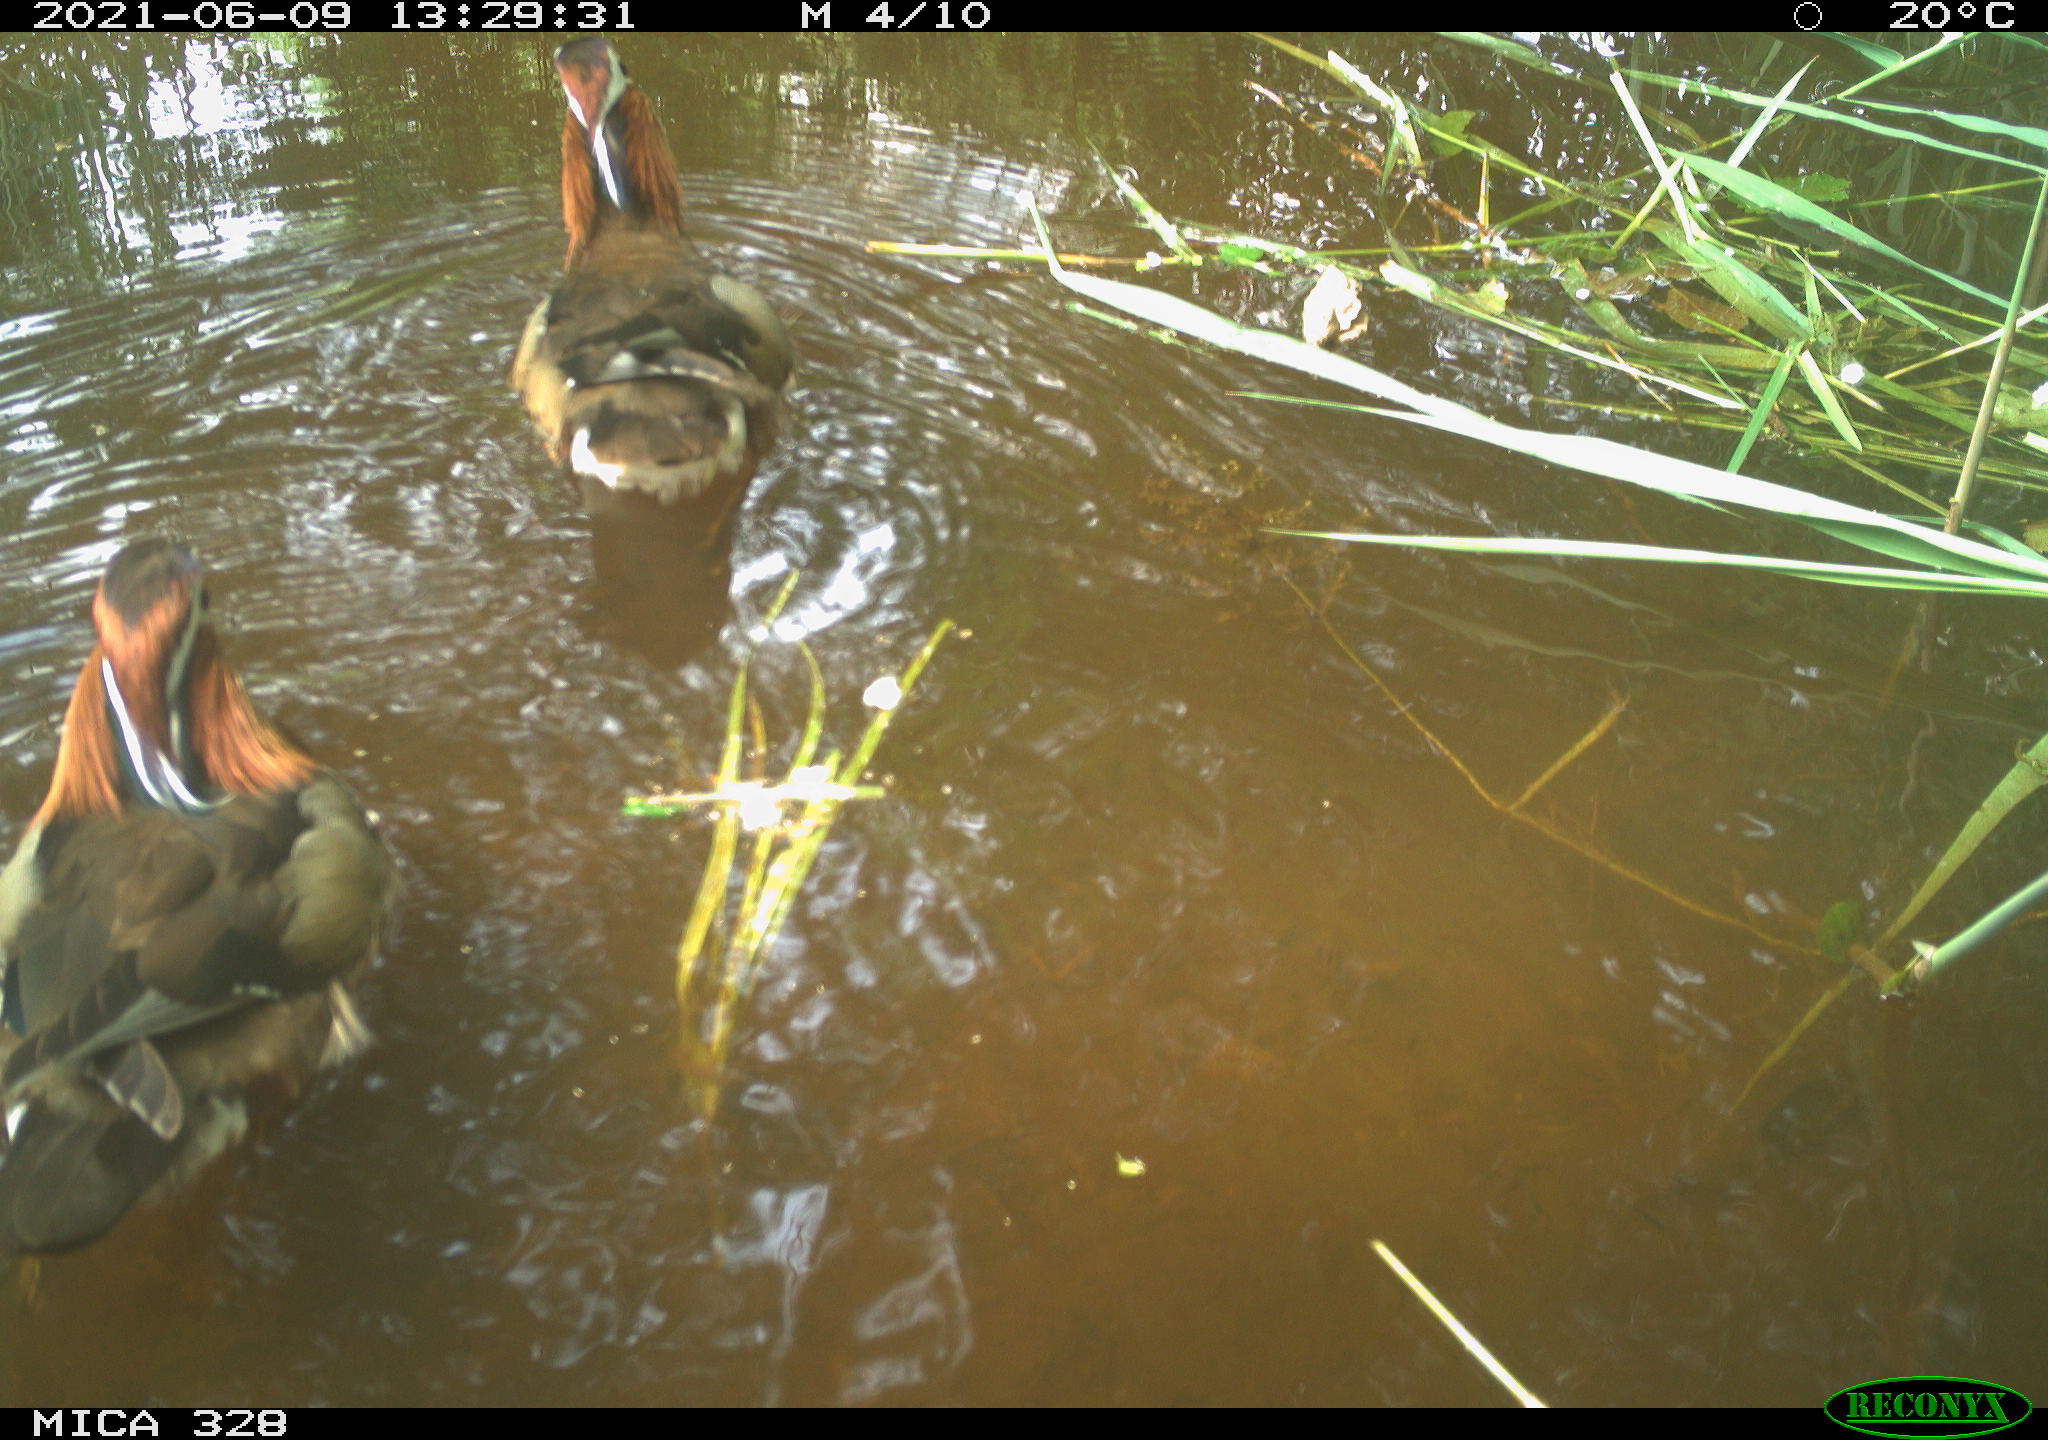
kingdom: Animalia
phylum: Chordata
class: Aves
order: Anseriformes
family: Anatidae
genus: Aix
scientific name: Aix galericulata
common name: Mandarin duck
